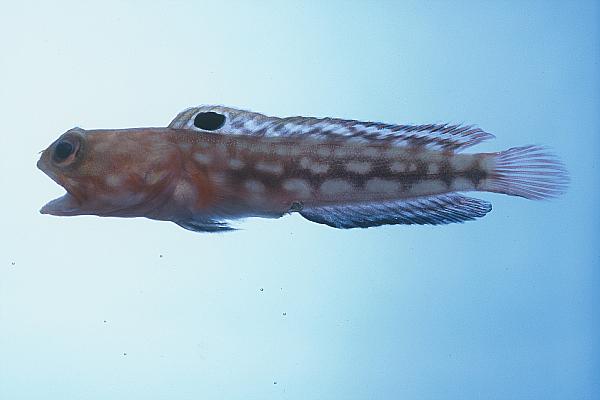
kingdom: Animalia
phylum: Chordata
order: Perciformes
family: Opistognathidae
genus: Opistognathus
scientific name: Opistognathus margaretae
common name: Halfscaled jawfish
